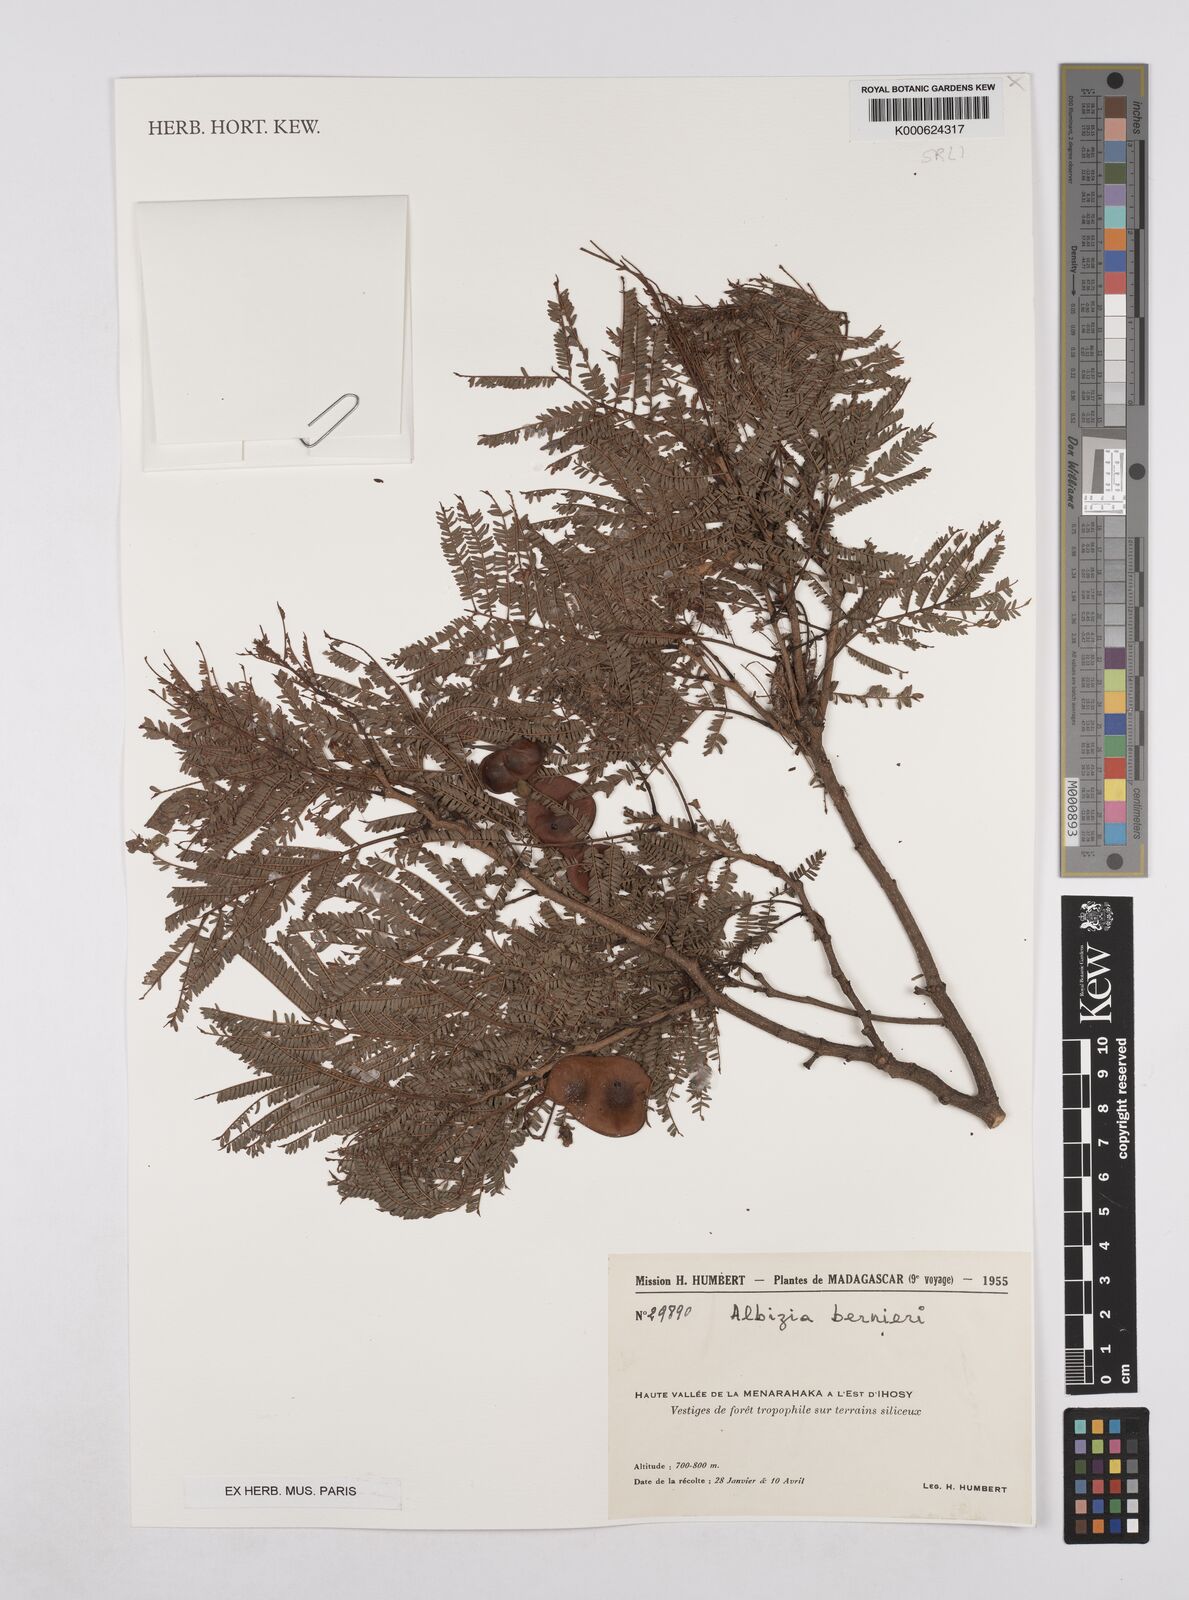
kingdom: Plantae
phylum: Tracheophyta
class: Magnoliopsida
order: Fabales
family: Fabaceae
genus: Albizia
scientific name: Albizia bernieri
